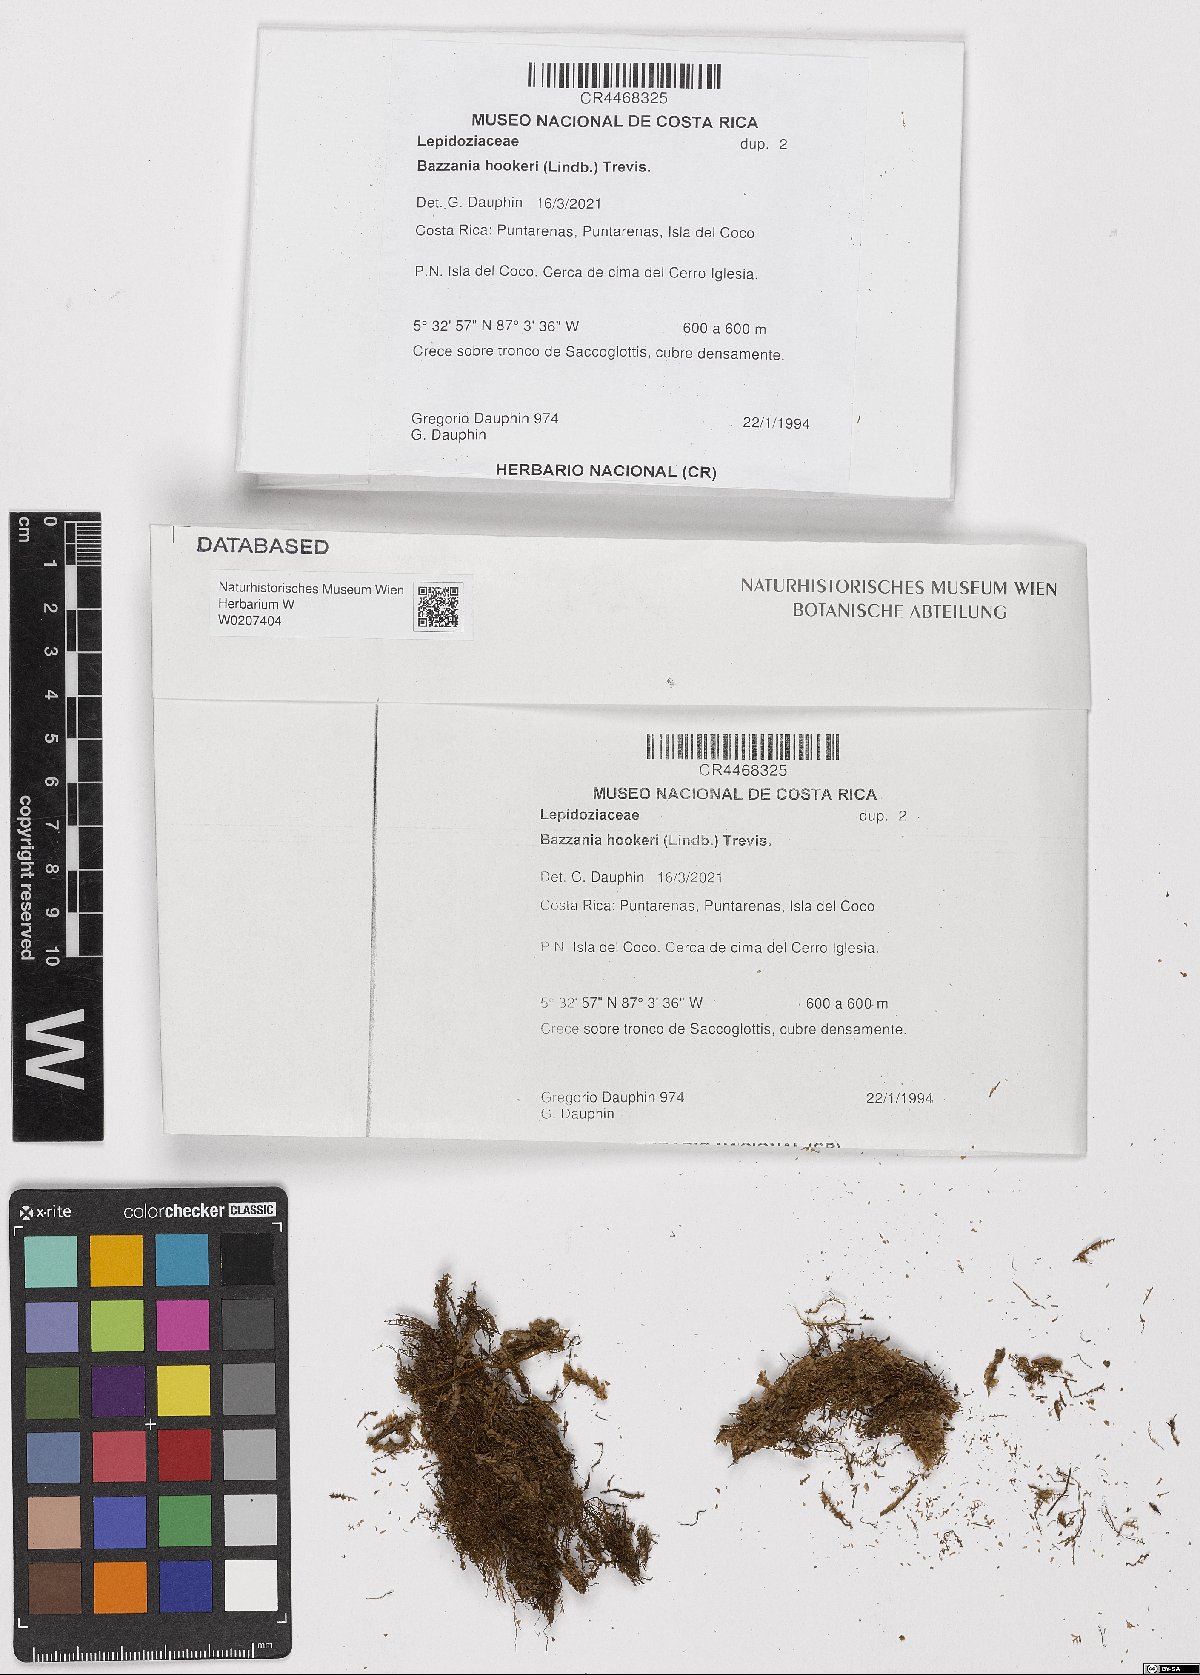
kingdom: Plantae
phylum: Marchantiophyta
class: Jungermanniopsida
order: Jungermanniales
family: Lepidoziaceae
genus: Bazzania
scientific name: Bazzania hookeri
